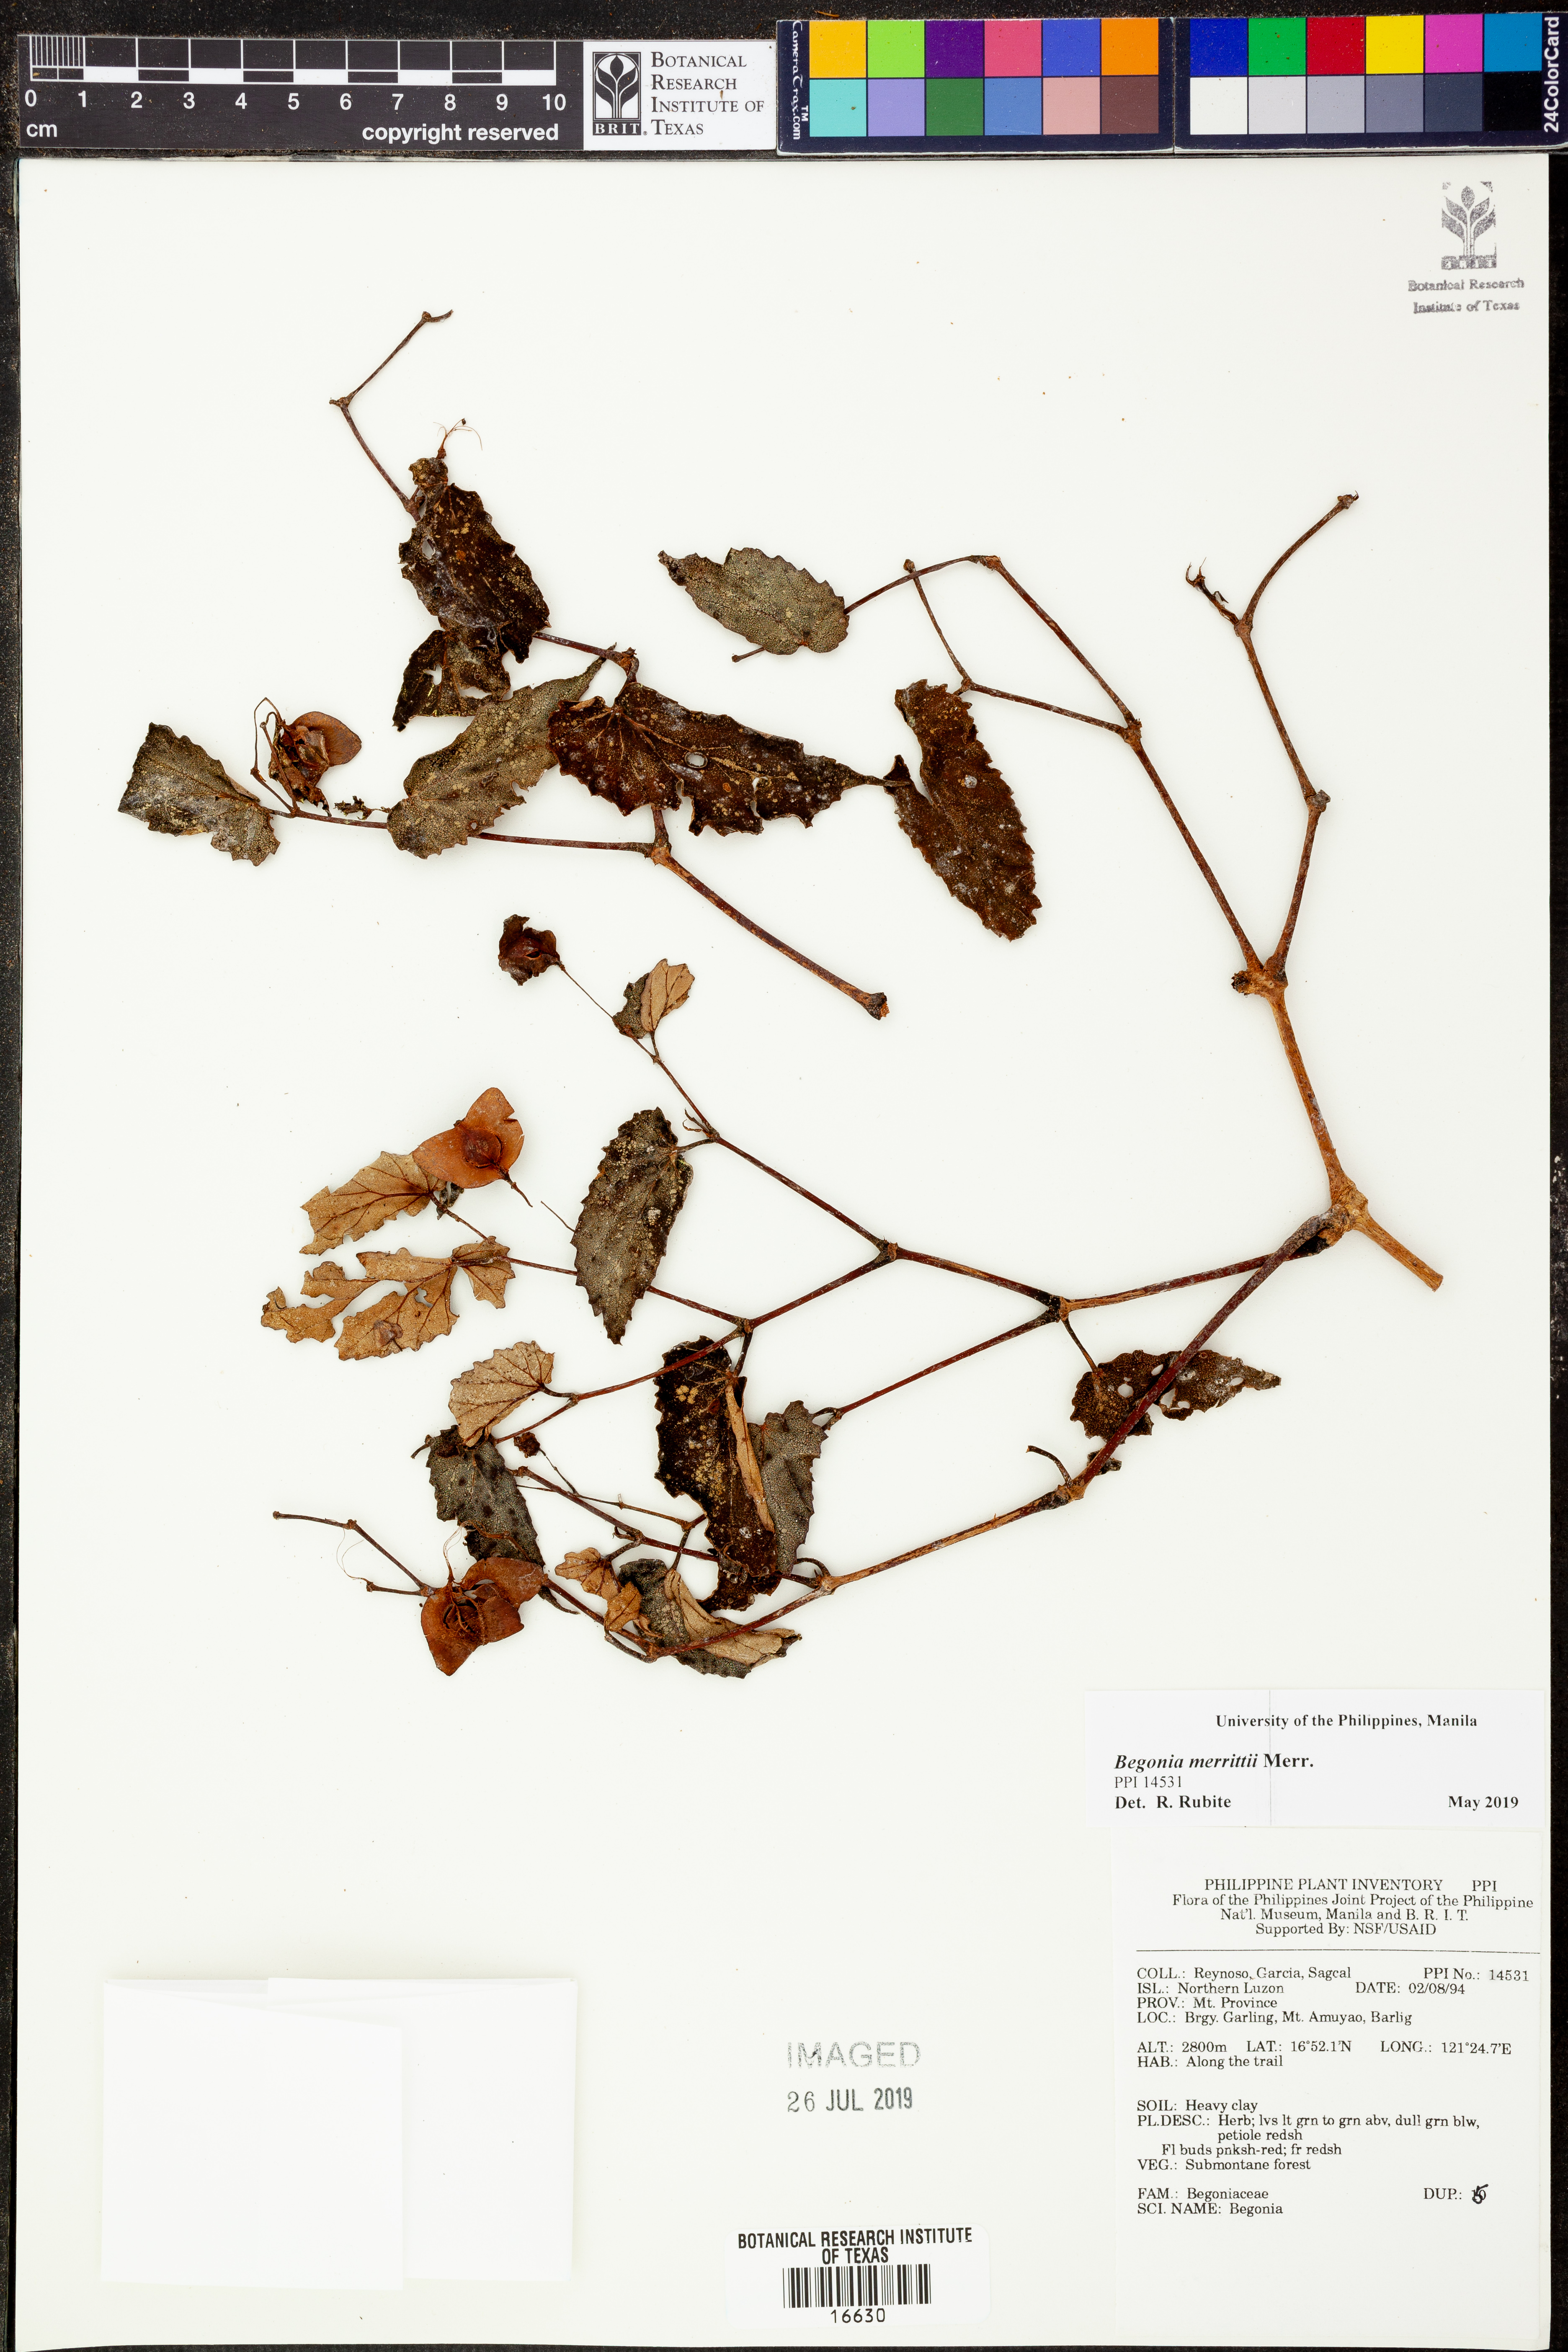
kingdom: Plantae
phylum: Tracheophyta
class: Magnoliopsida
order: Cucurbitales
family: Begoniaceae
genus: Begonia
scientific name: Begonia merrittii
